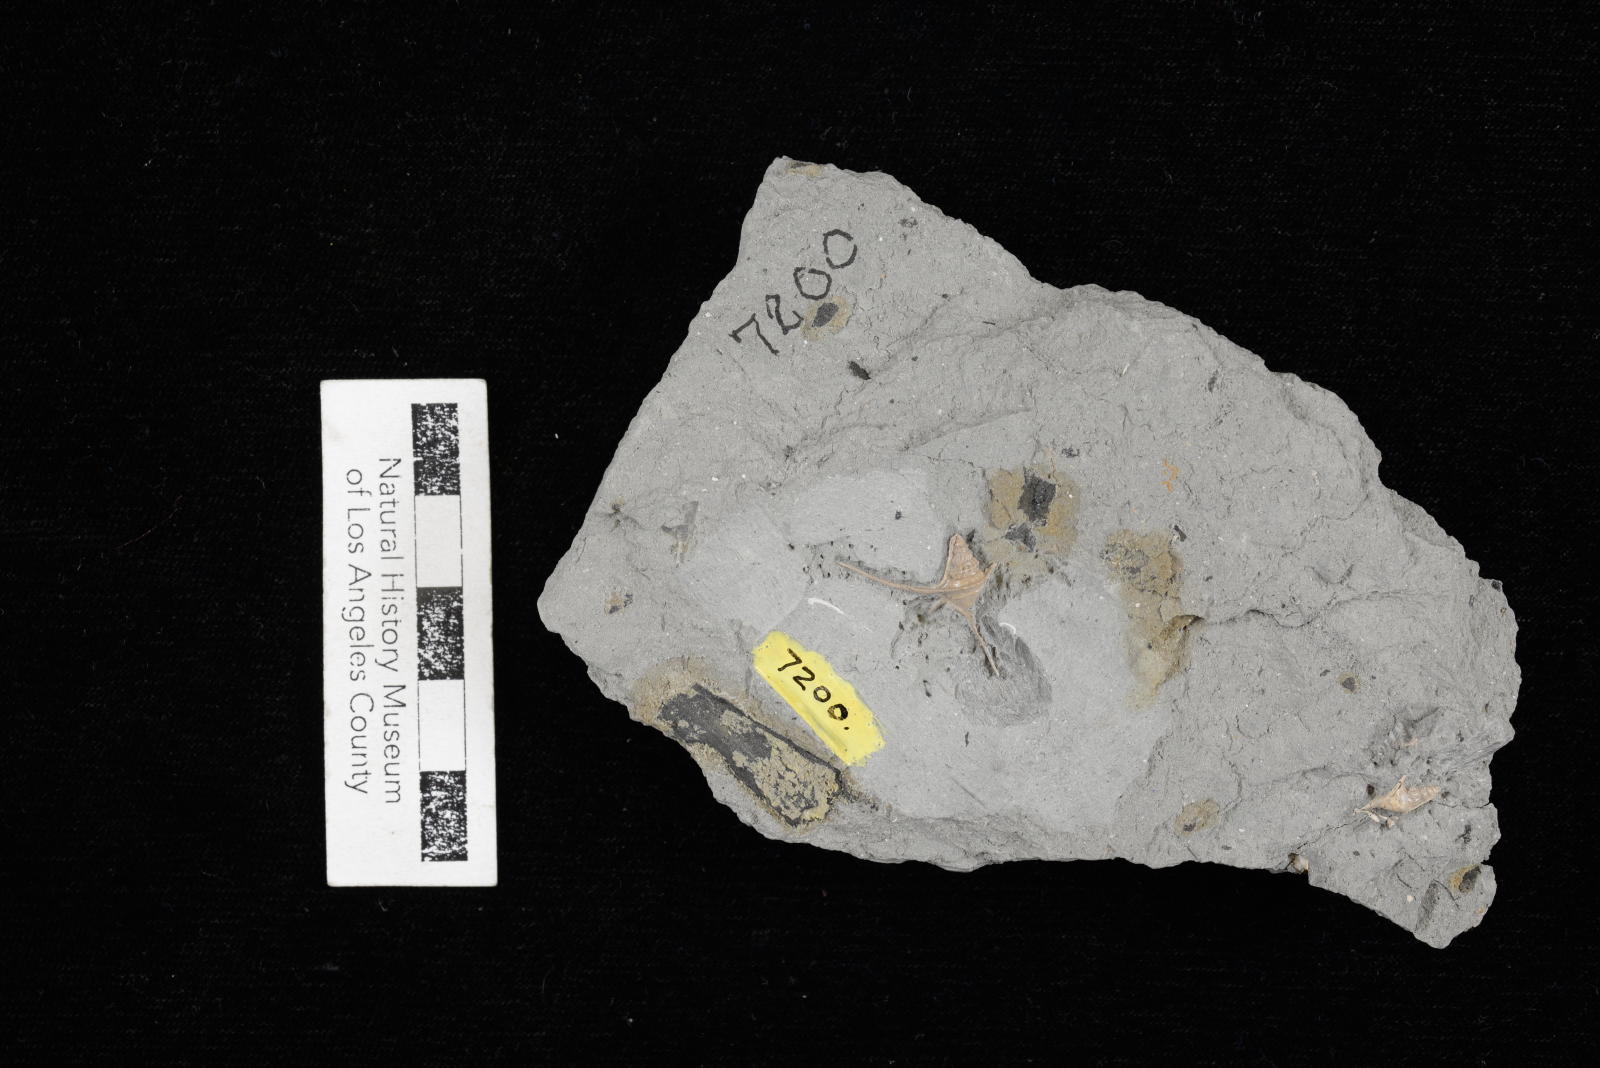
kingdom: Animalia
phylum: Mollusca
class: Gastropoda
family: Turritellidae
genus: Turritella
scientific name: Turritella chicoensis
